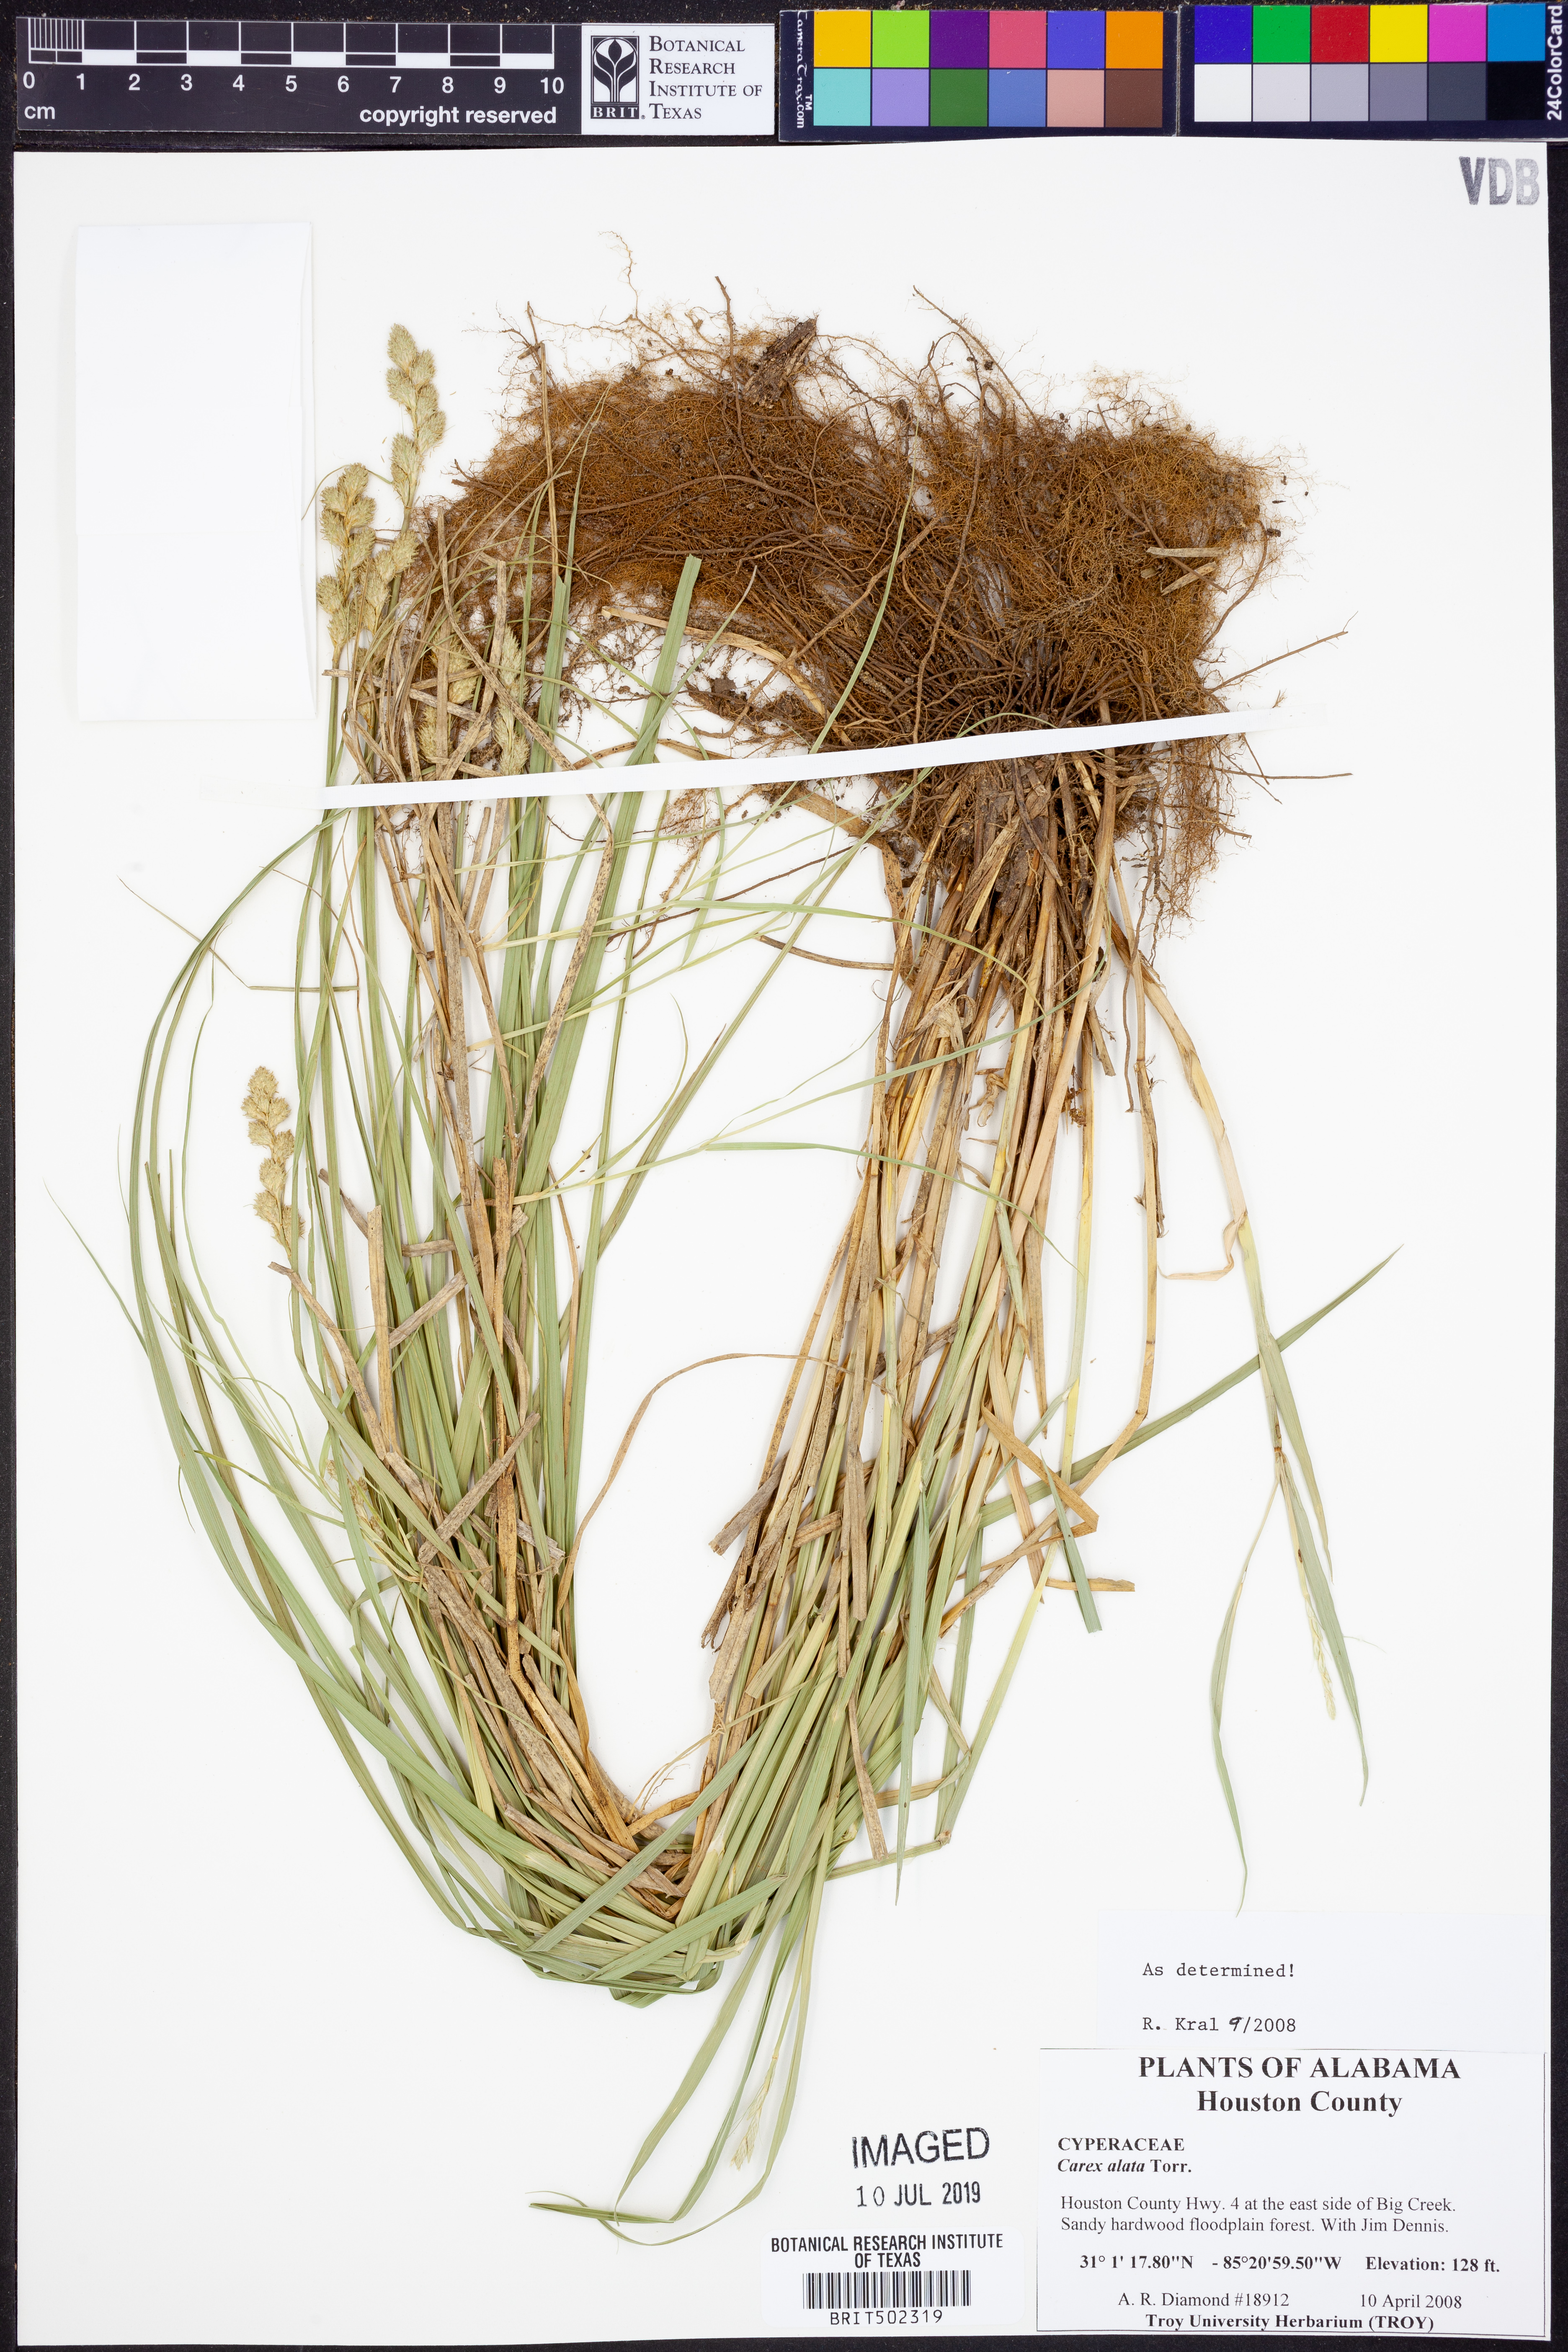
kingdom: Plantae
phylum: Tracheophyta
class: Liliopsida
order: Poales
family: Cyperaceae
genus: Carex
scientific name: Carex alata
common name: Broad-winged sedge
